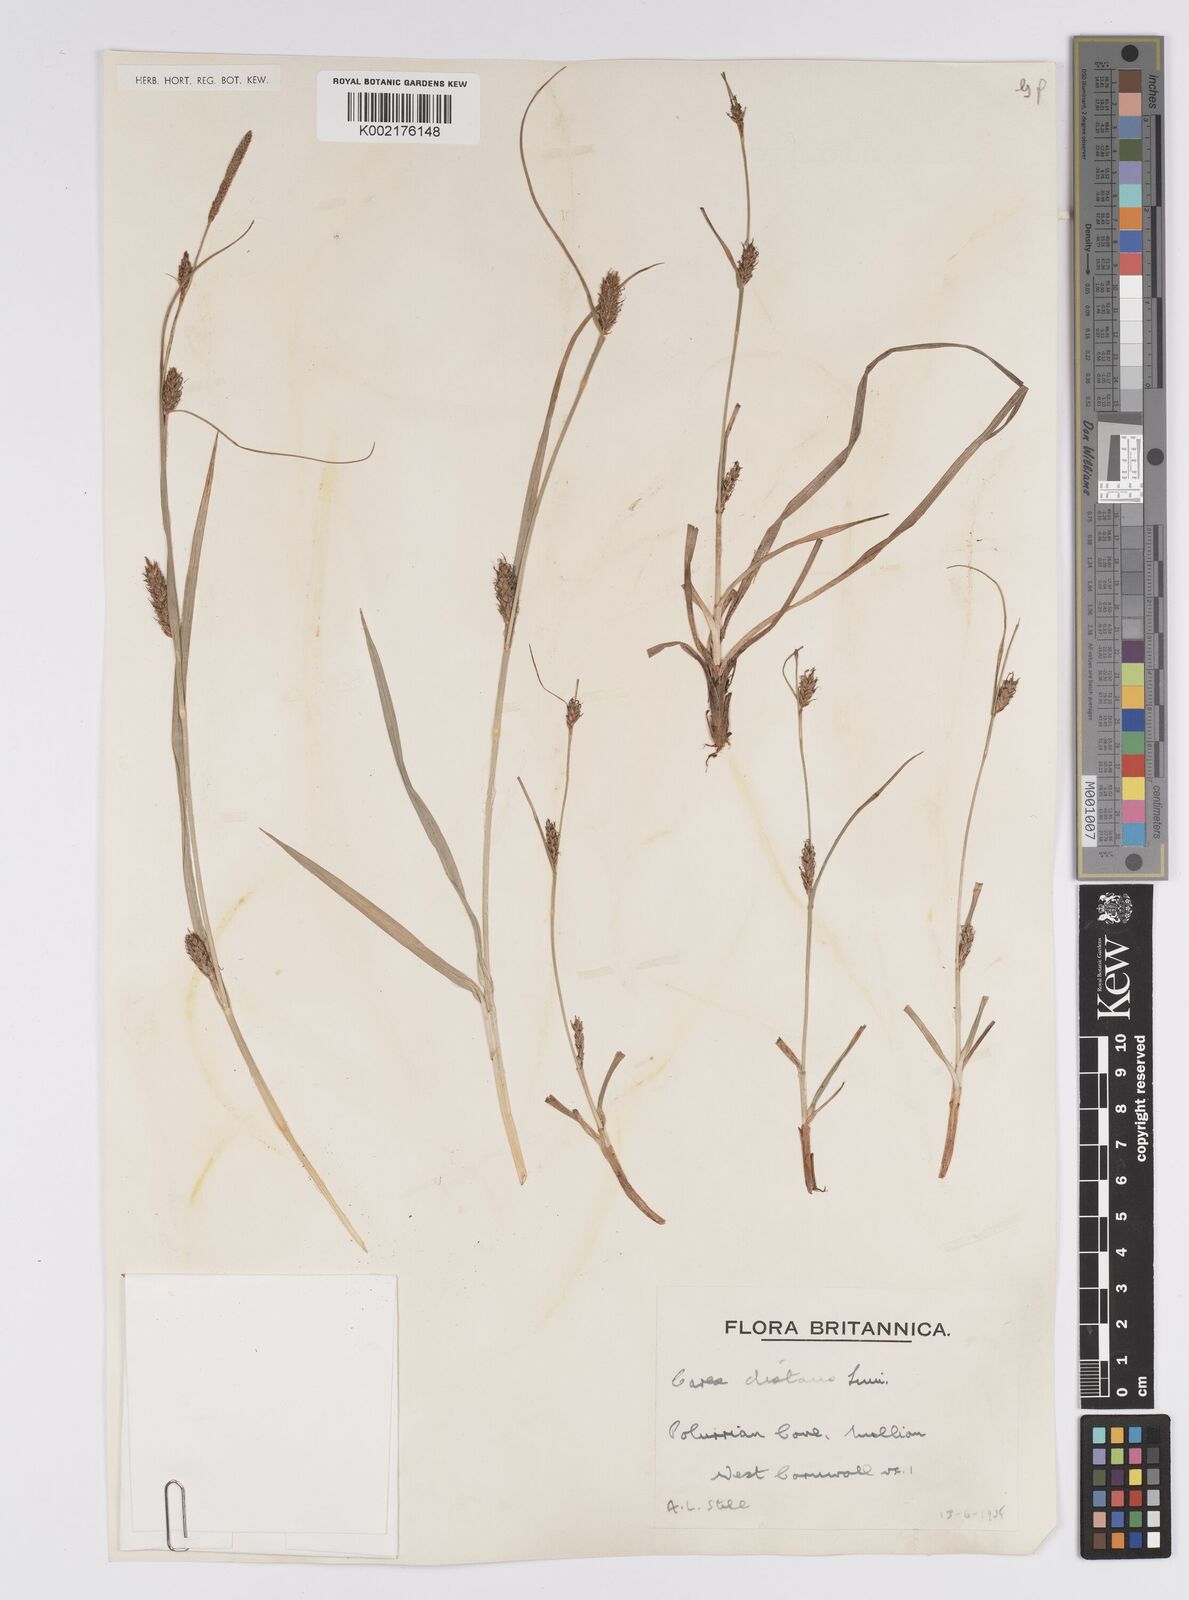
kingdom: Plantae
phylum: Tracheophyta
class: Liliopsida
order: Poales
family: Cyperaceae
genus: Carex
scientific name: Carex distans
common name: Distant sedge
